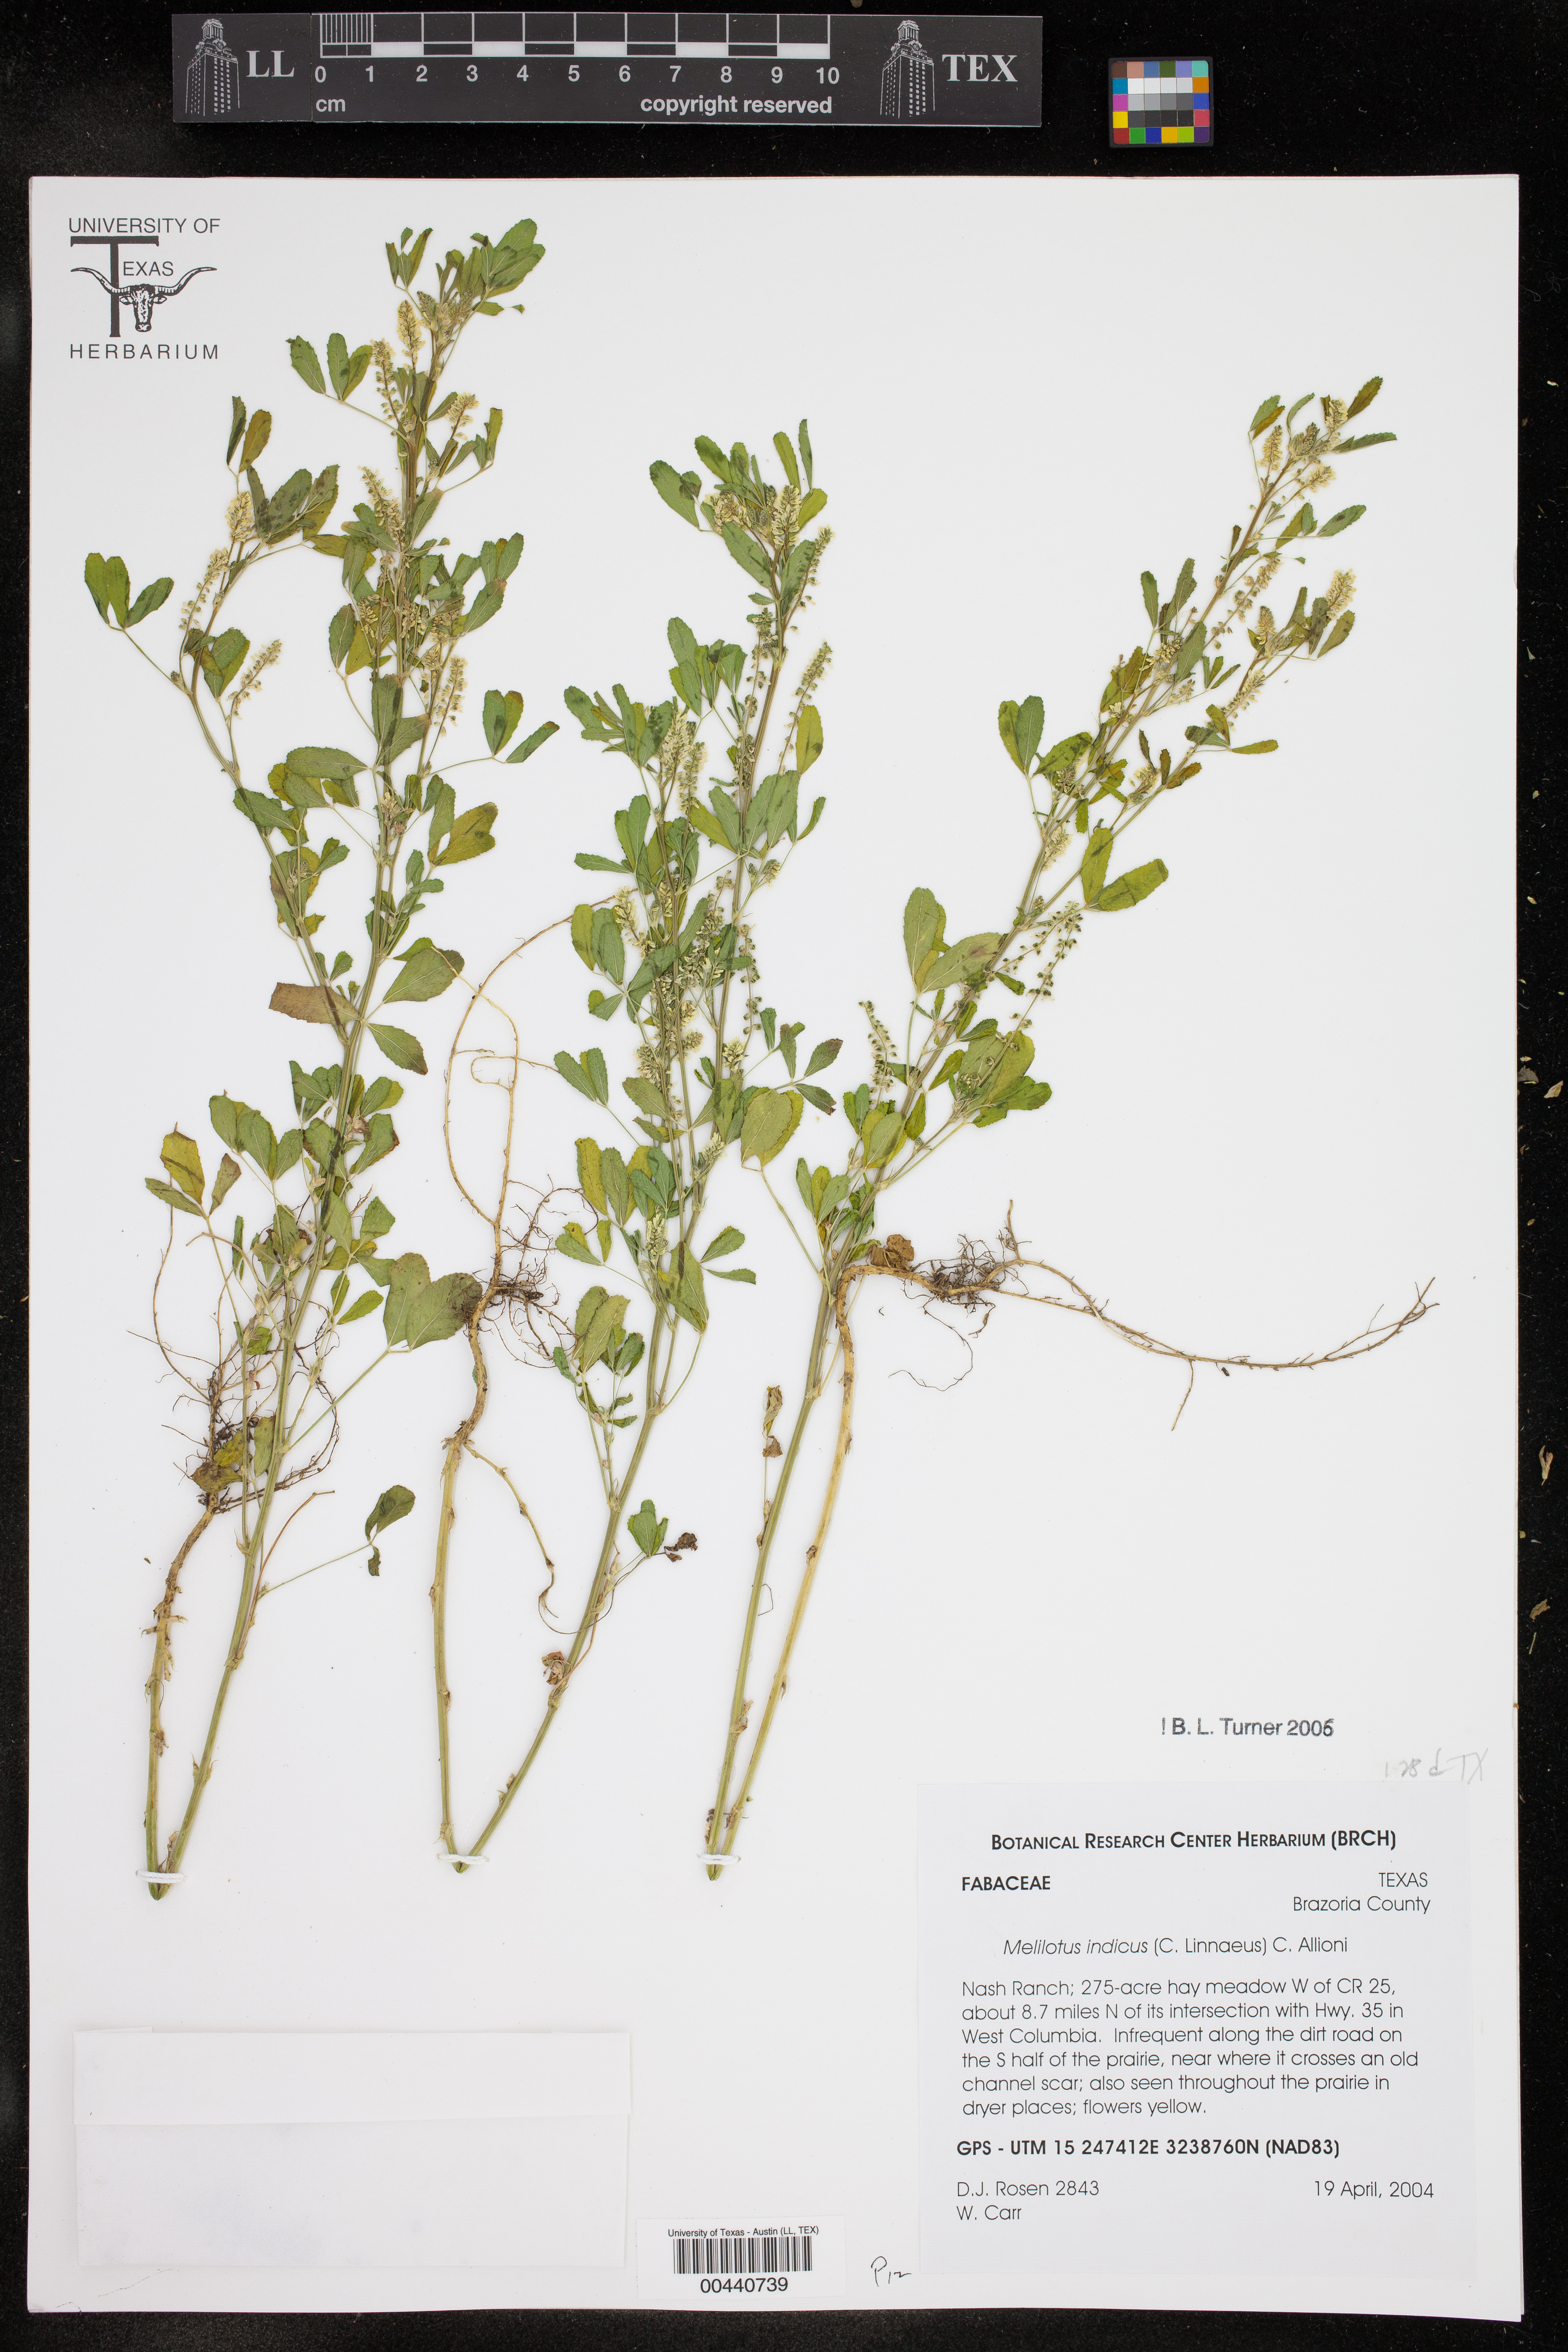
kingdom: Plantae
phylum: Tracheophyta
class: Magnoliopsida
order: Fabales
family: Fabaceae
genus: Melilotus
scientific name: Melilotus indicus
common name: Small melilot
